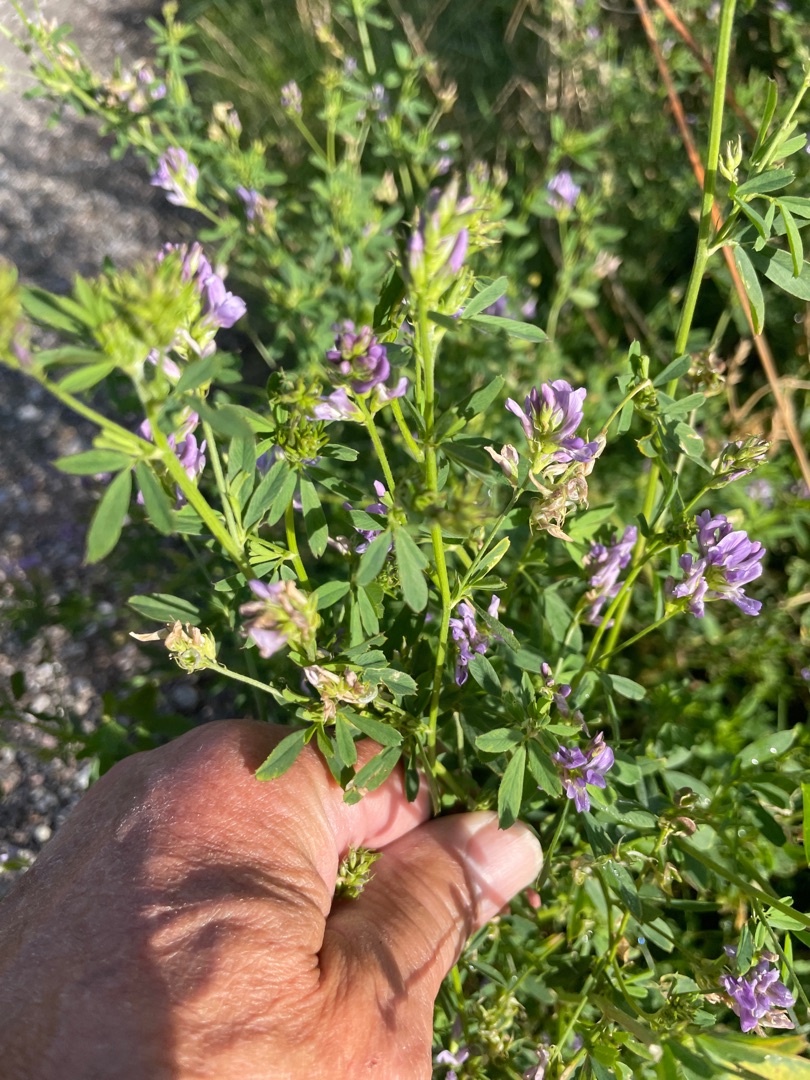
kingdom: Plantae
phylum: Tracheophyta
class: Magnoliopsida
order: Fabales
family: Fabaceae
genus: Medicago
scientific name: Medicago sativa
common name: Lucerne
